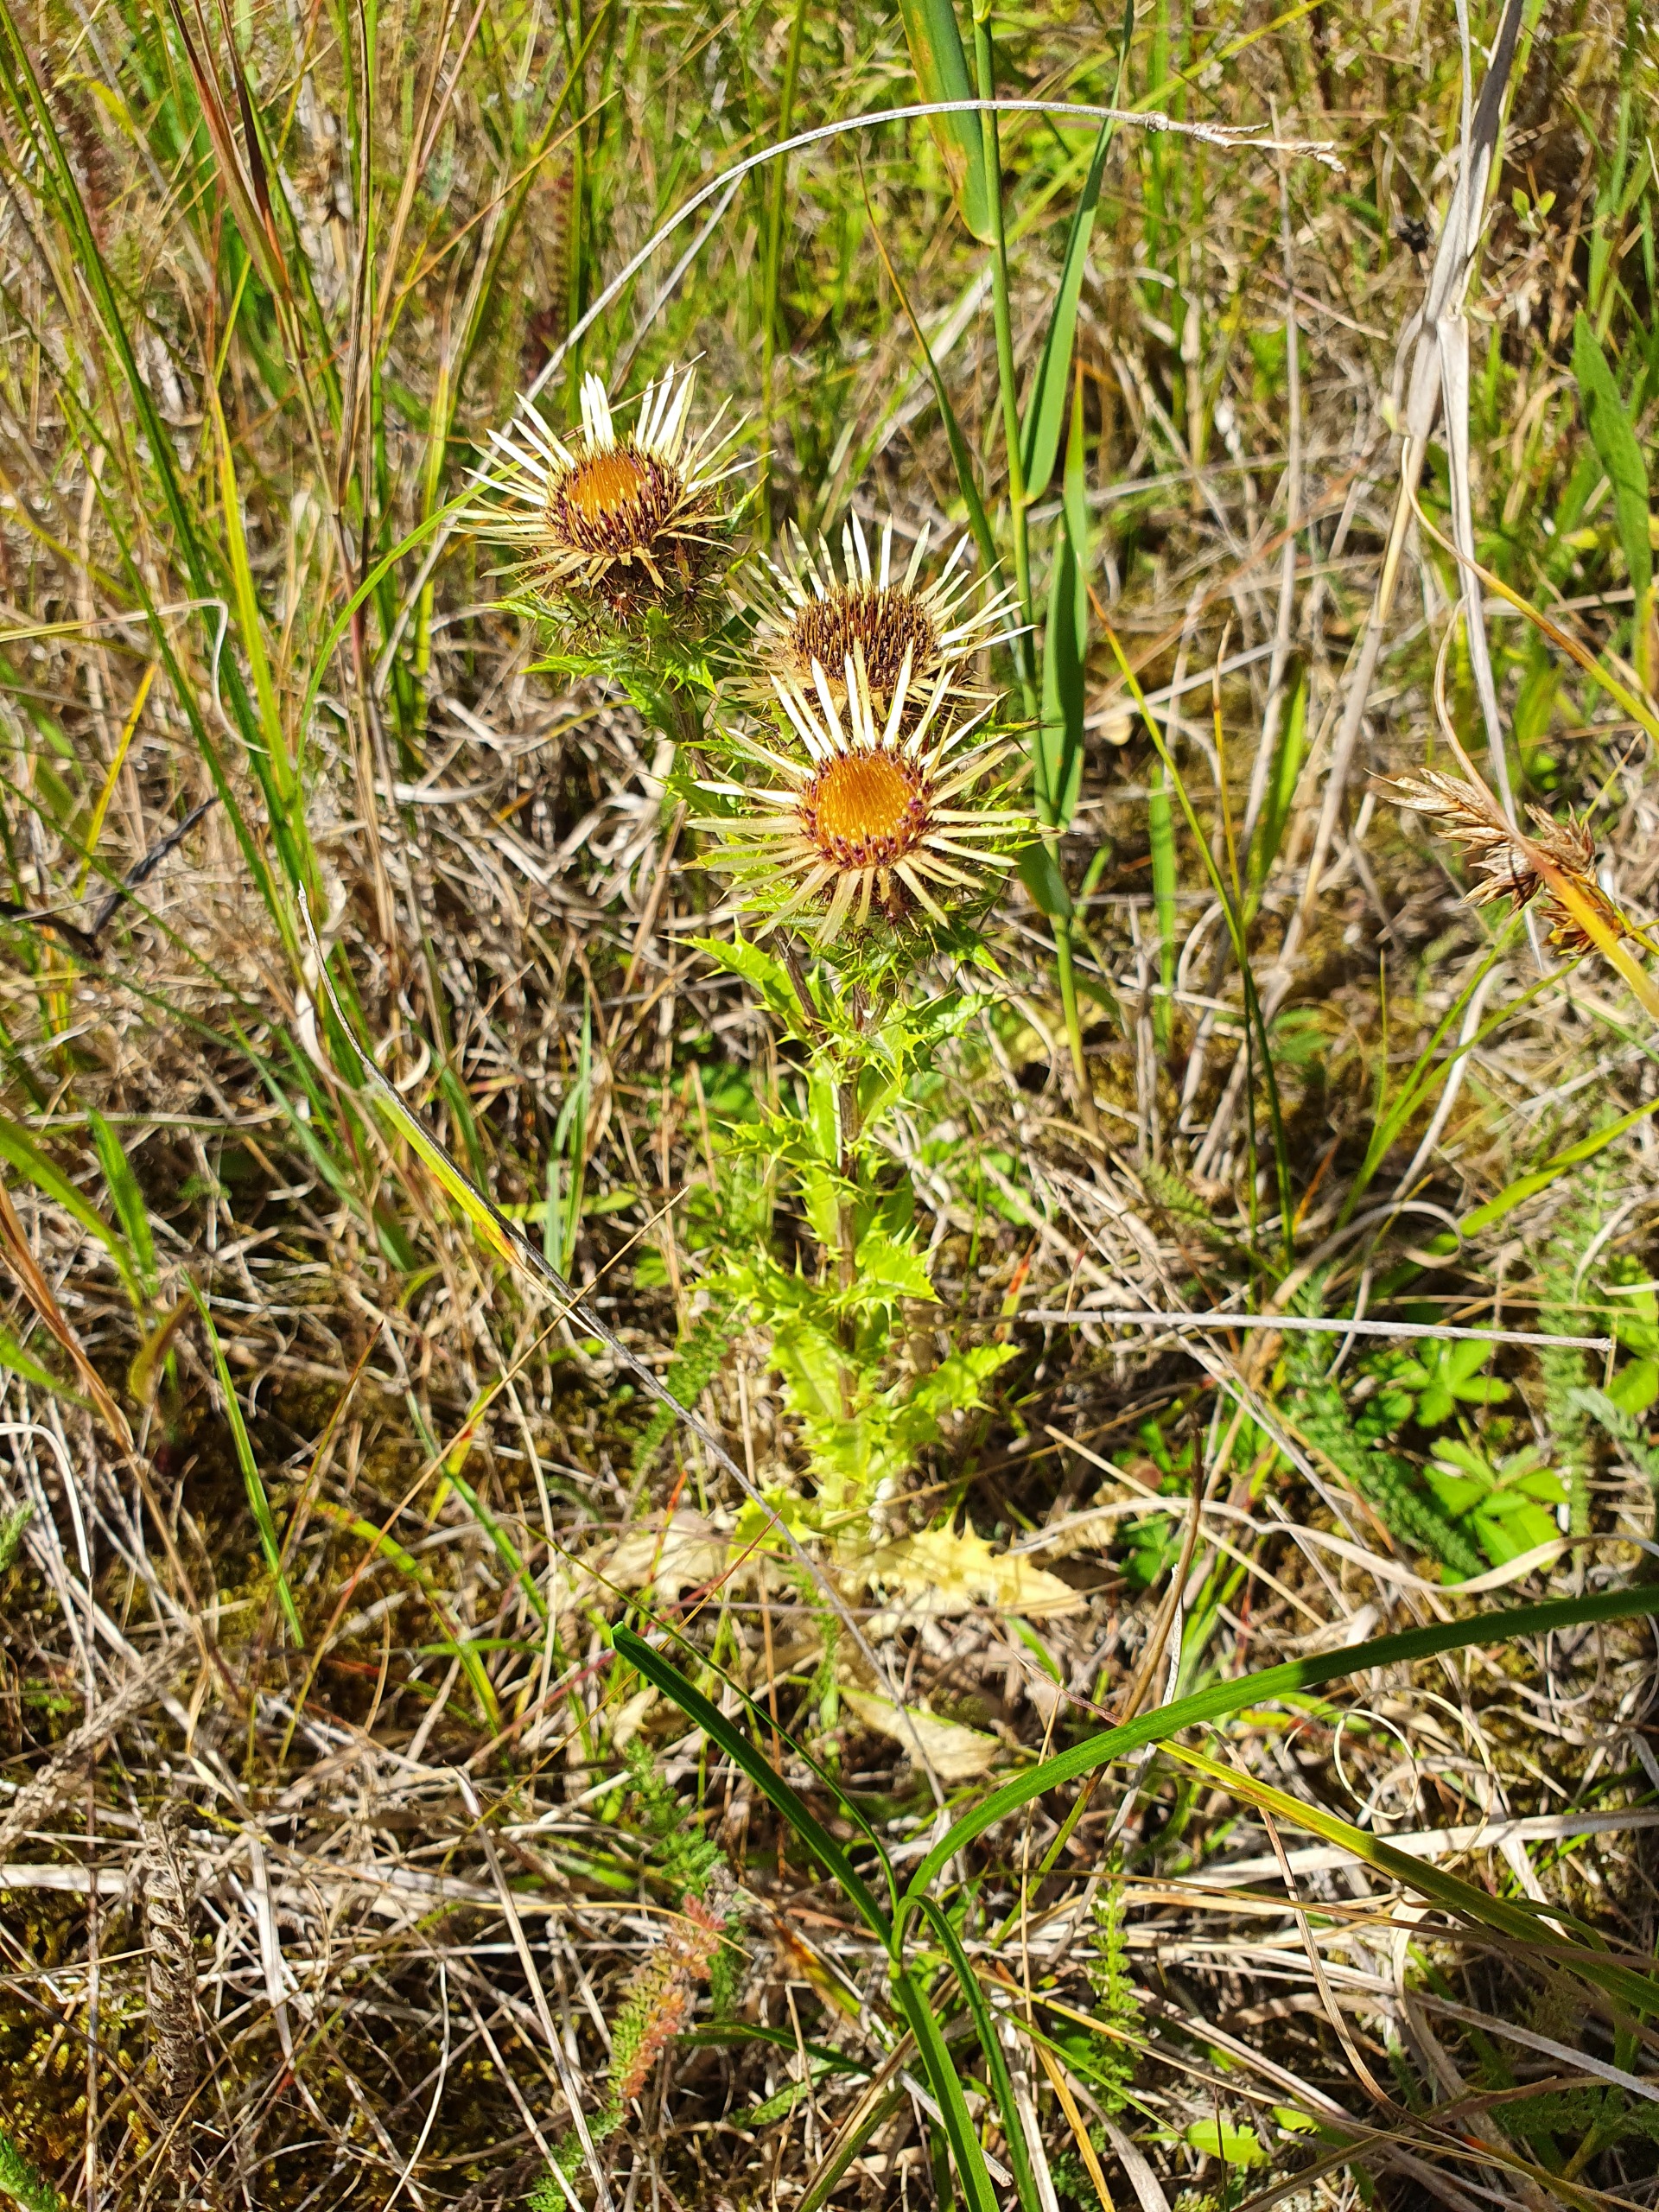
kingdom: Plantae
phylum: Tracheophyta
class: Magnoliopsida
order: Asterales
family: Asteraceae
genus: Carlina
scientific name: Carlina vulgaris
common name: Bakketidsel
